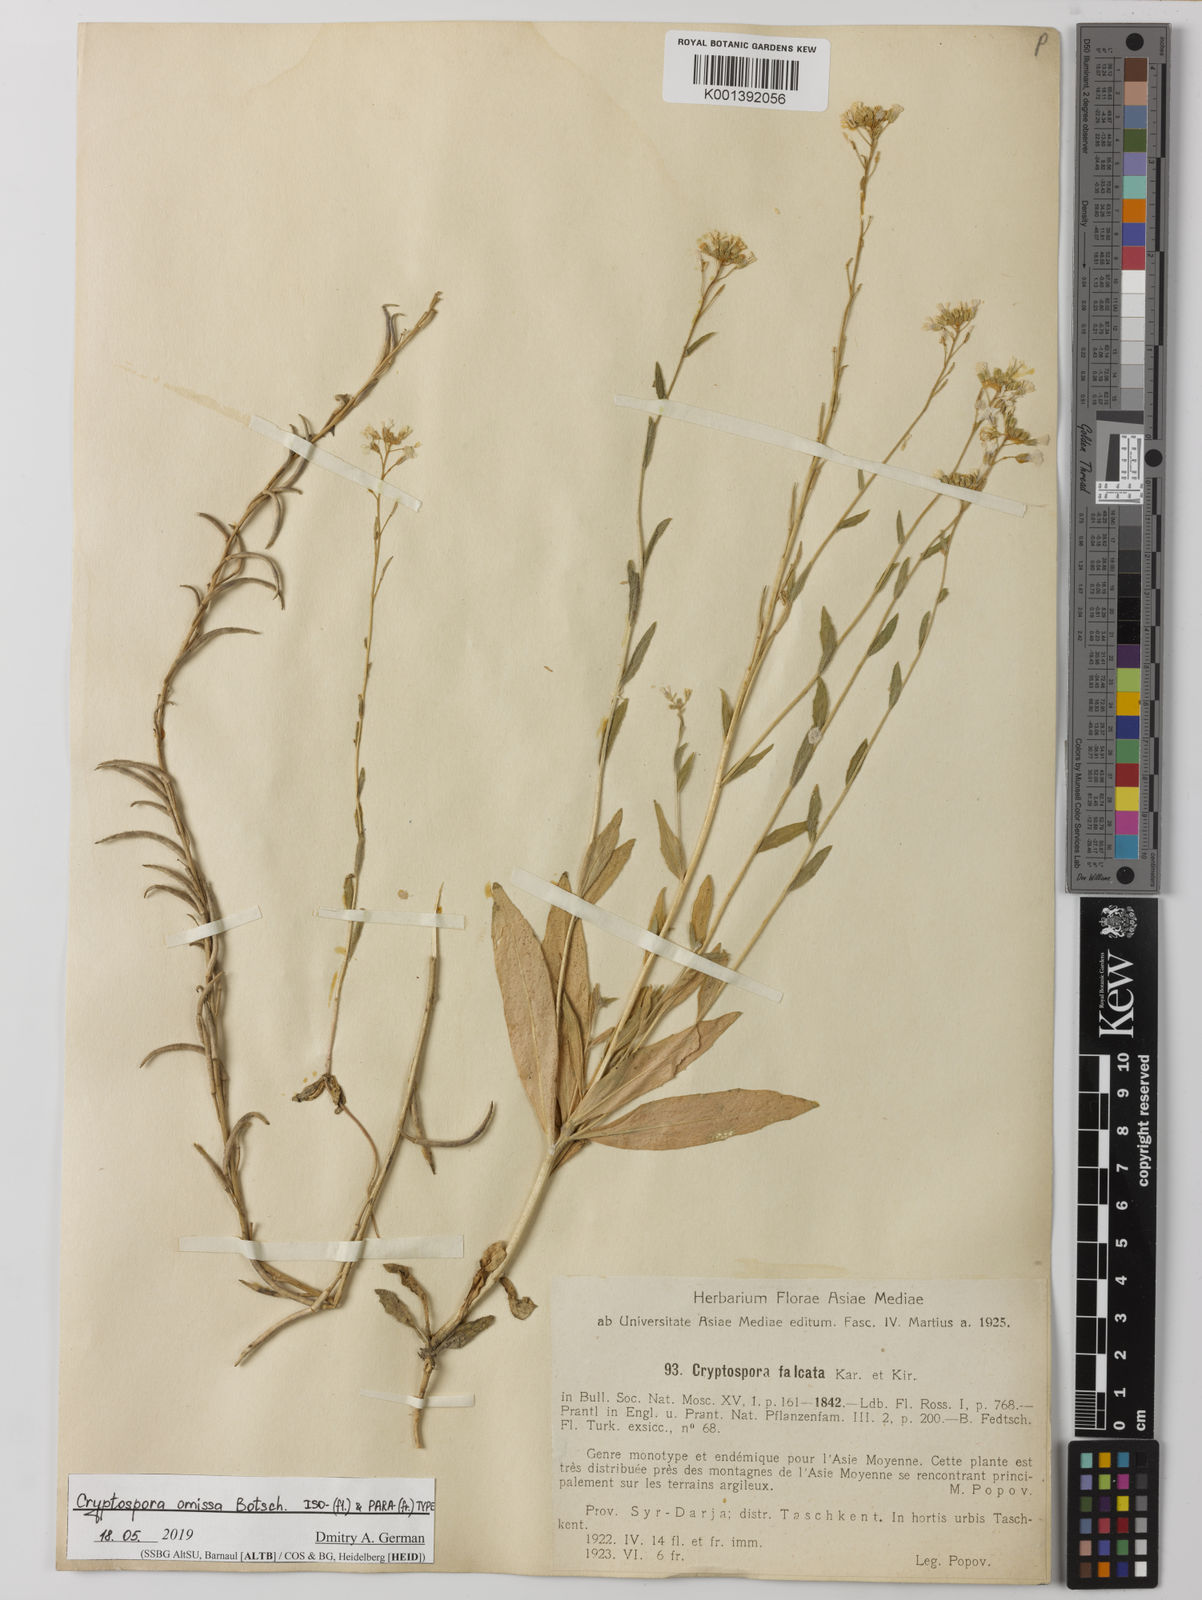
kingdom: Plantae
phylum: Tracheophyta
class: Magnoliopsida
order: Brassicales
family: Brassicaceae
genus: Cryptospora
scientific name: Cryptospora falcata
